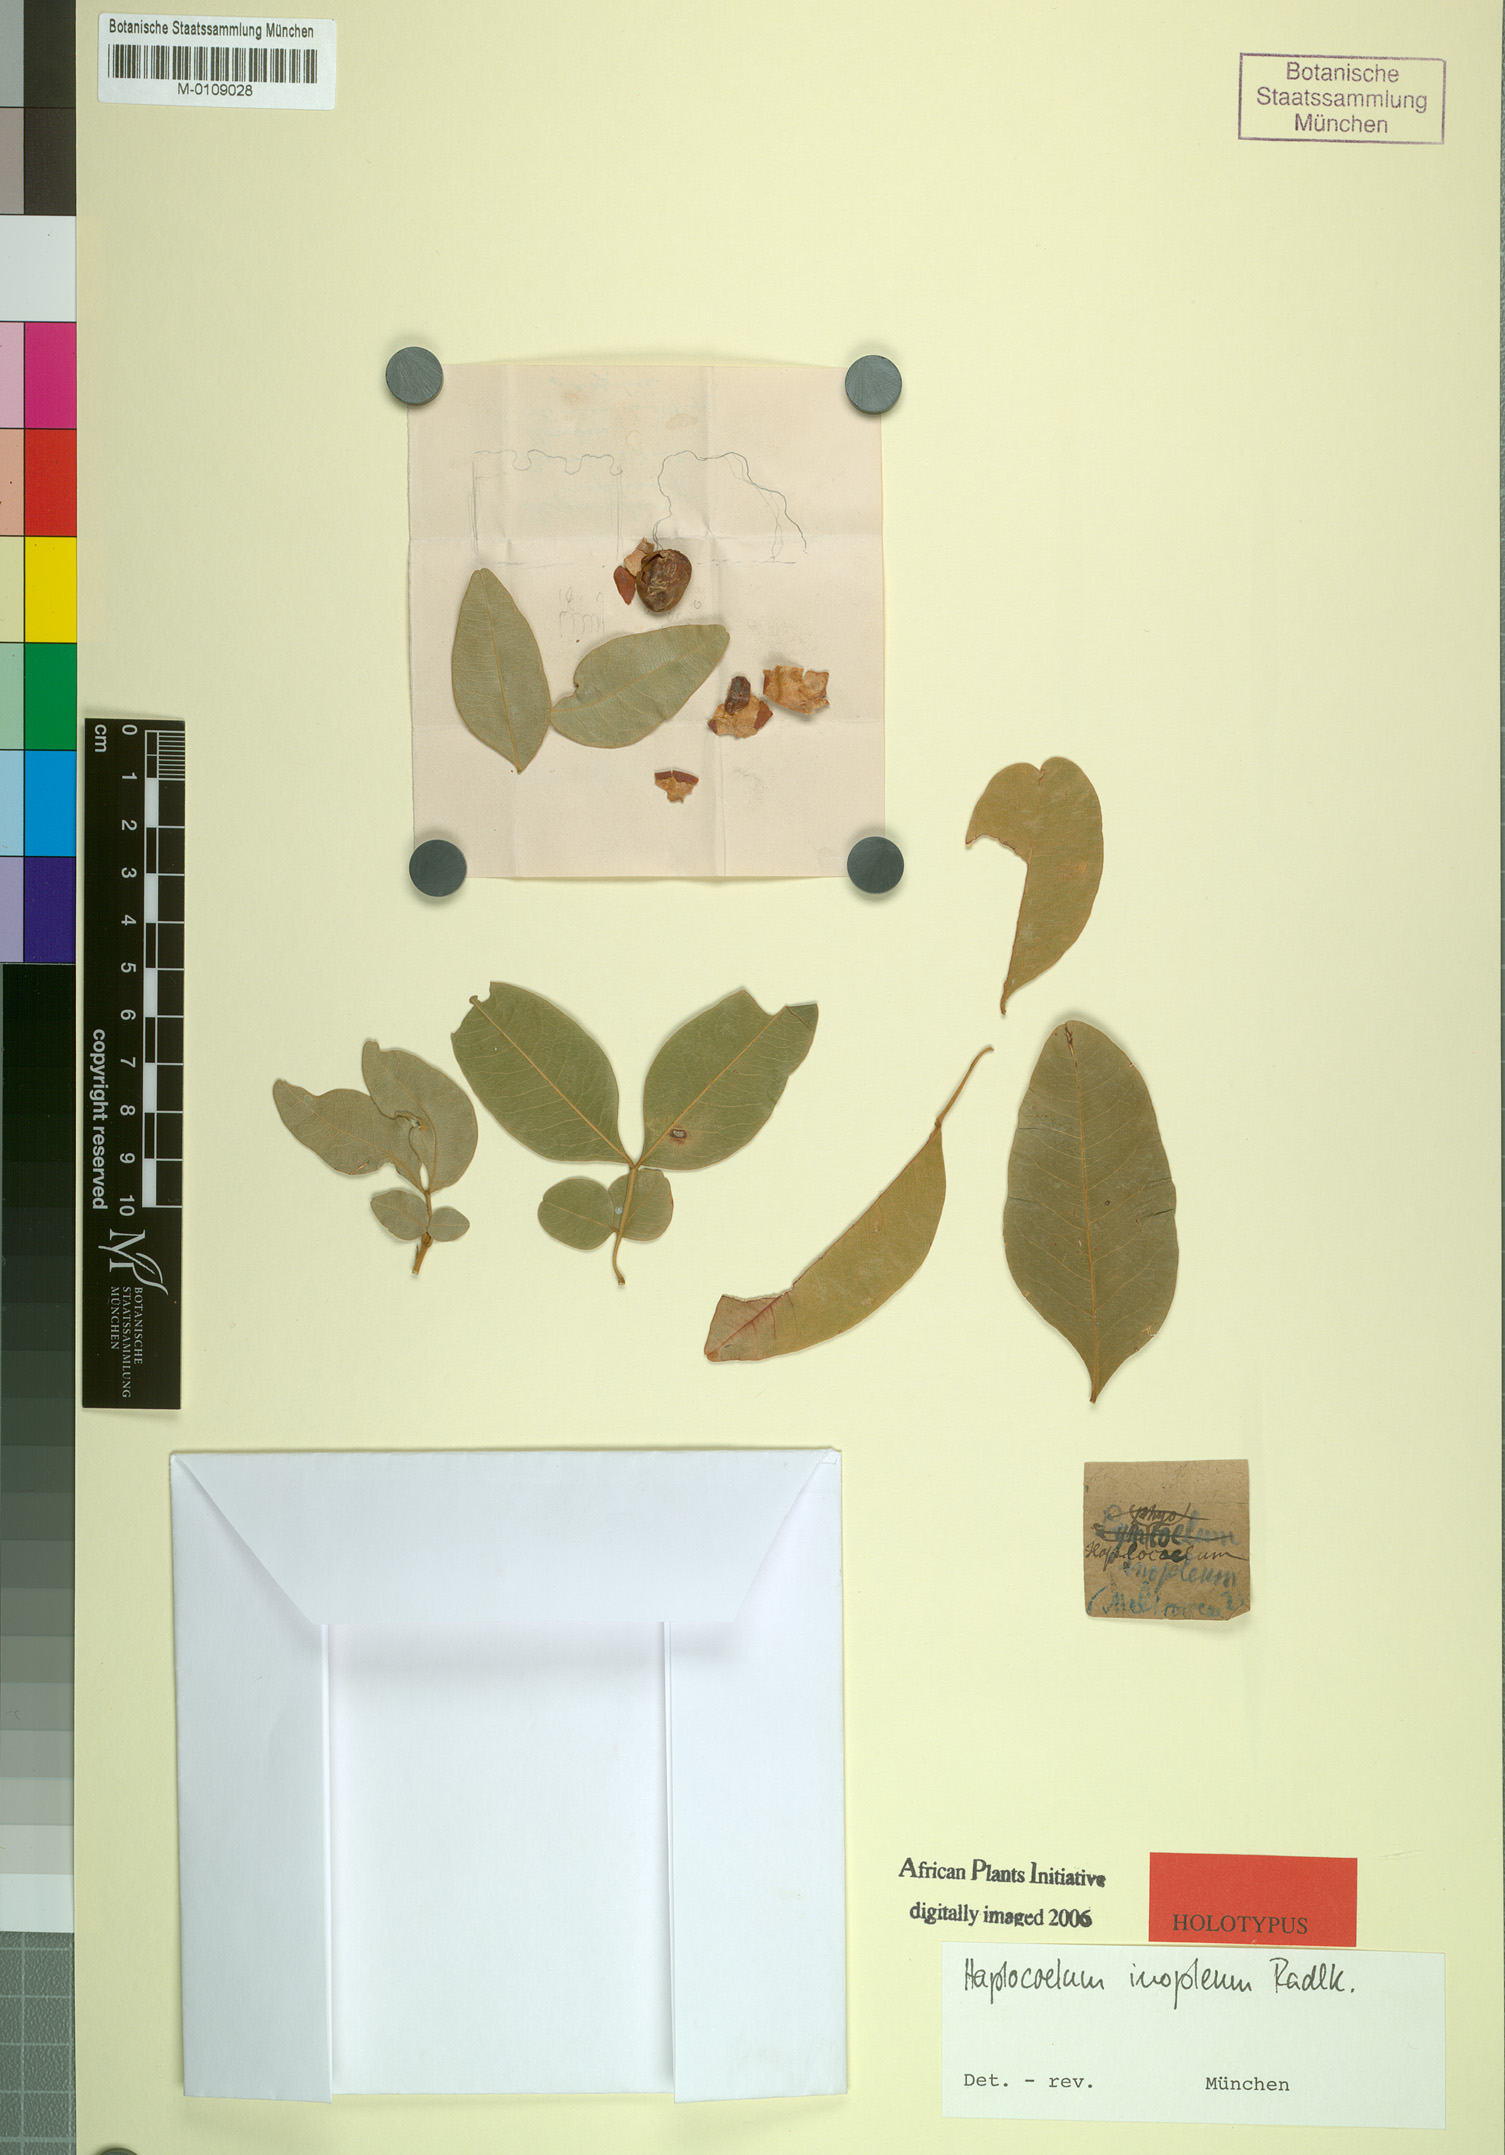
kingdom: Plantae
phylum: Tracheophyta
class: Magnoliopsida
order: Sapindales
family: Sapindaceae
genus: Haplocoelum
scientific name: Haplocoelum foliolosum
